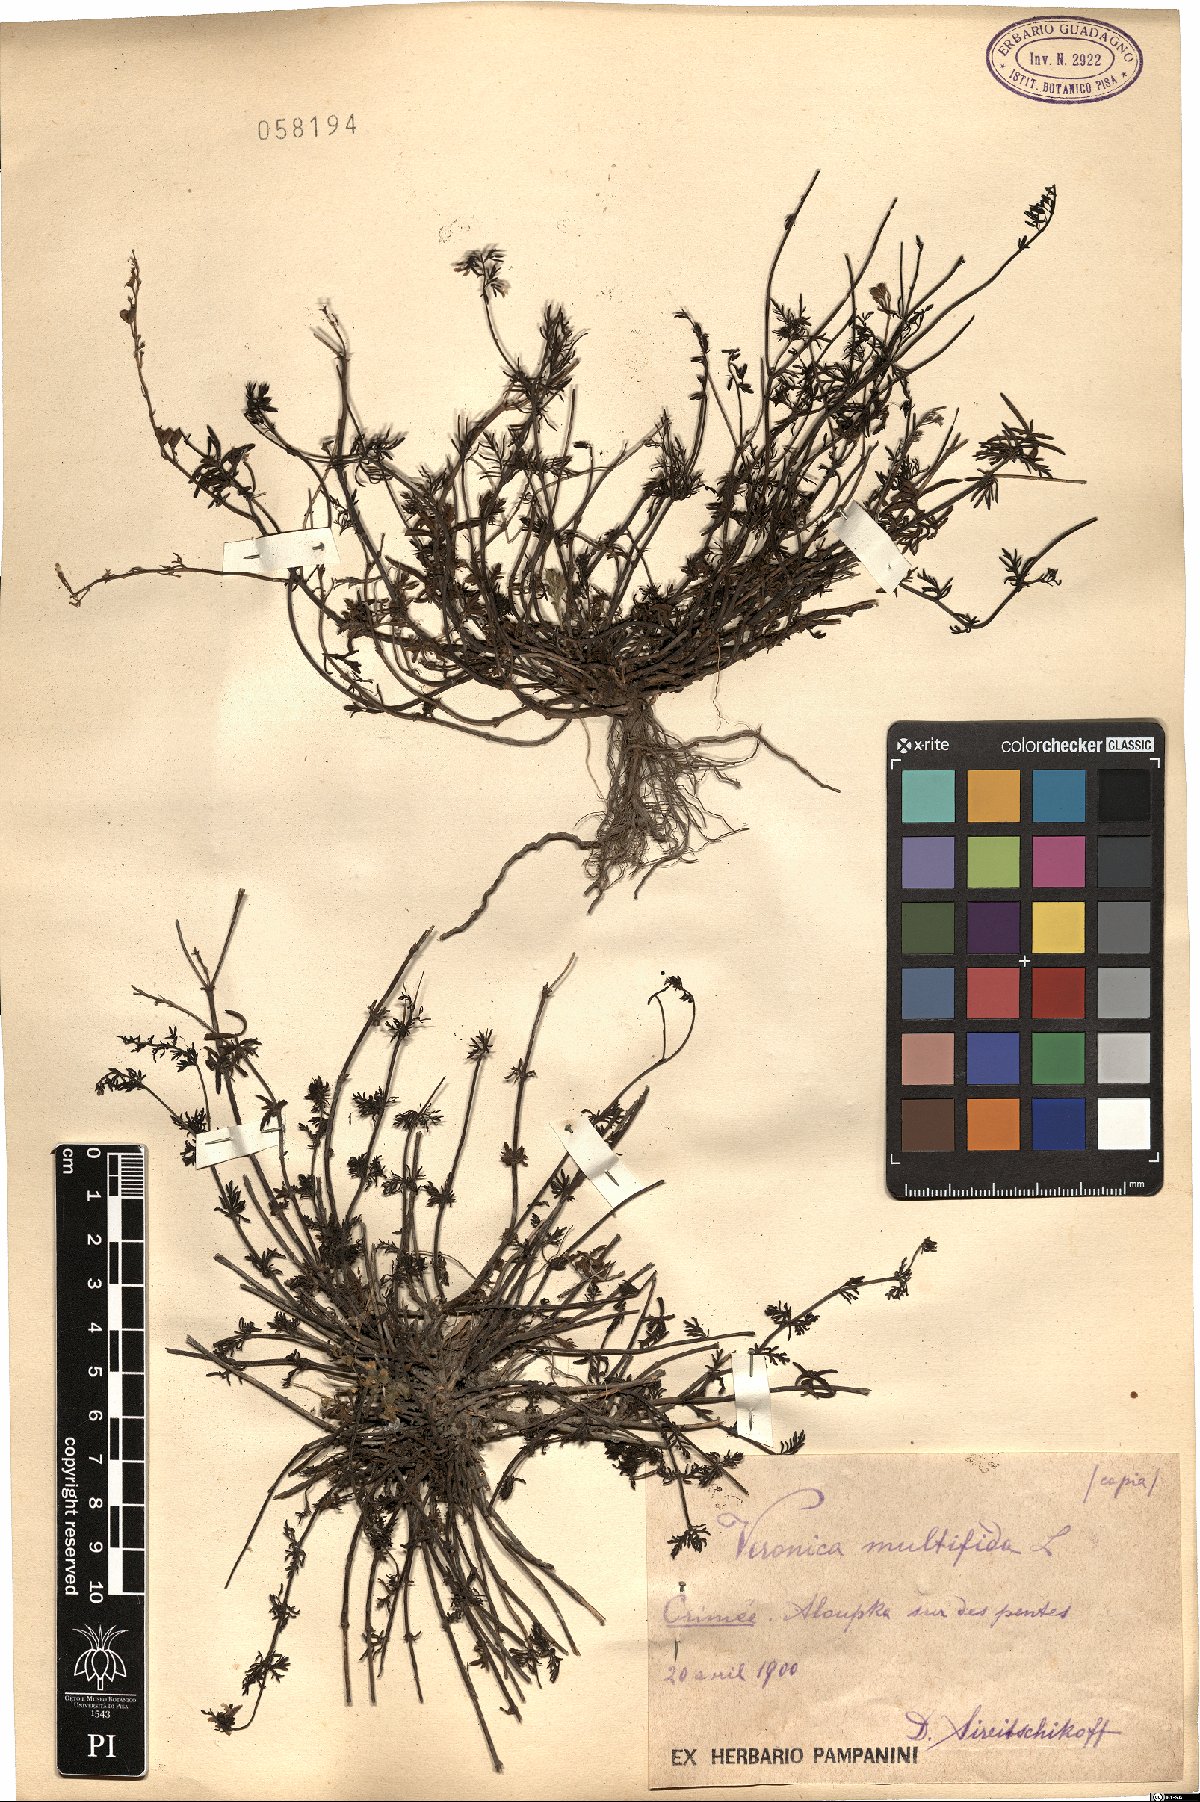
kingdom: Plantae
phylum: Tracheophyta
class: Magnoliopsida
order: Lamiales
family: Plantaginaceae
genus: Veronica
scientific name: Veronica multifida
